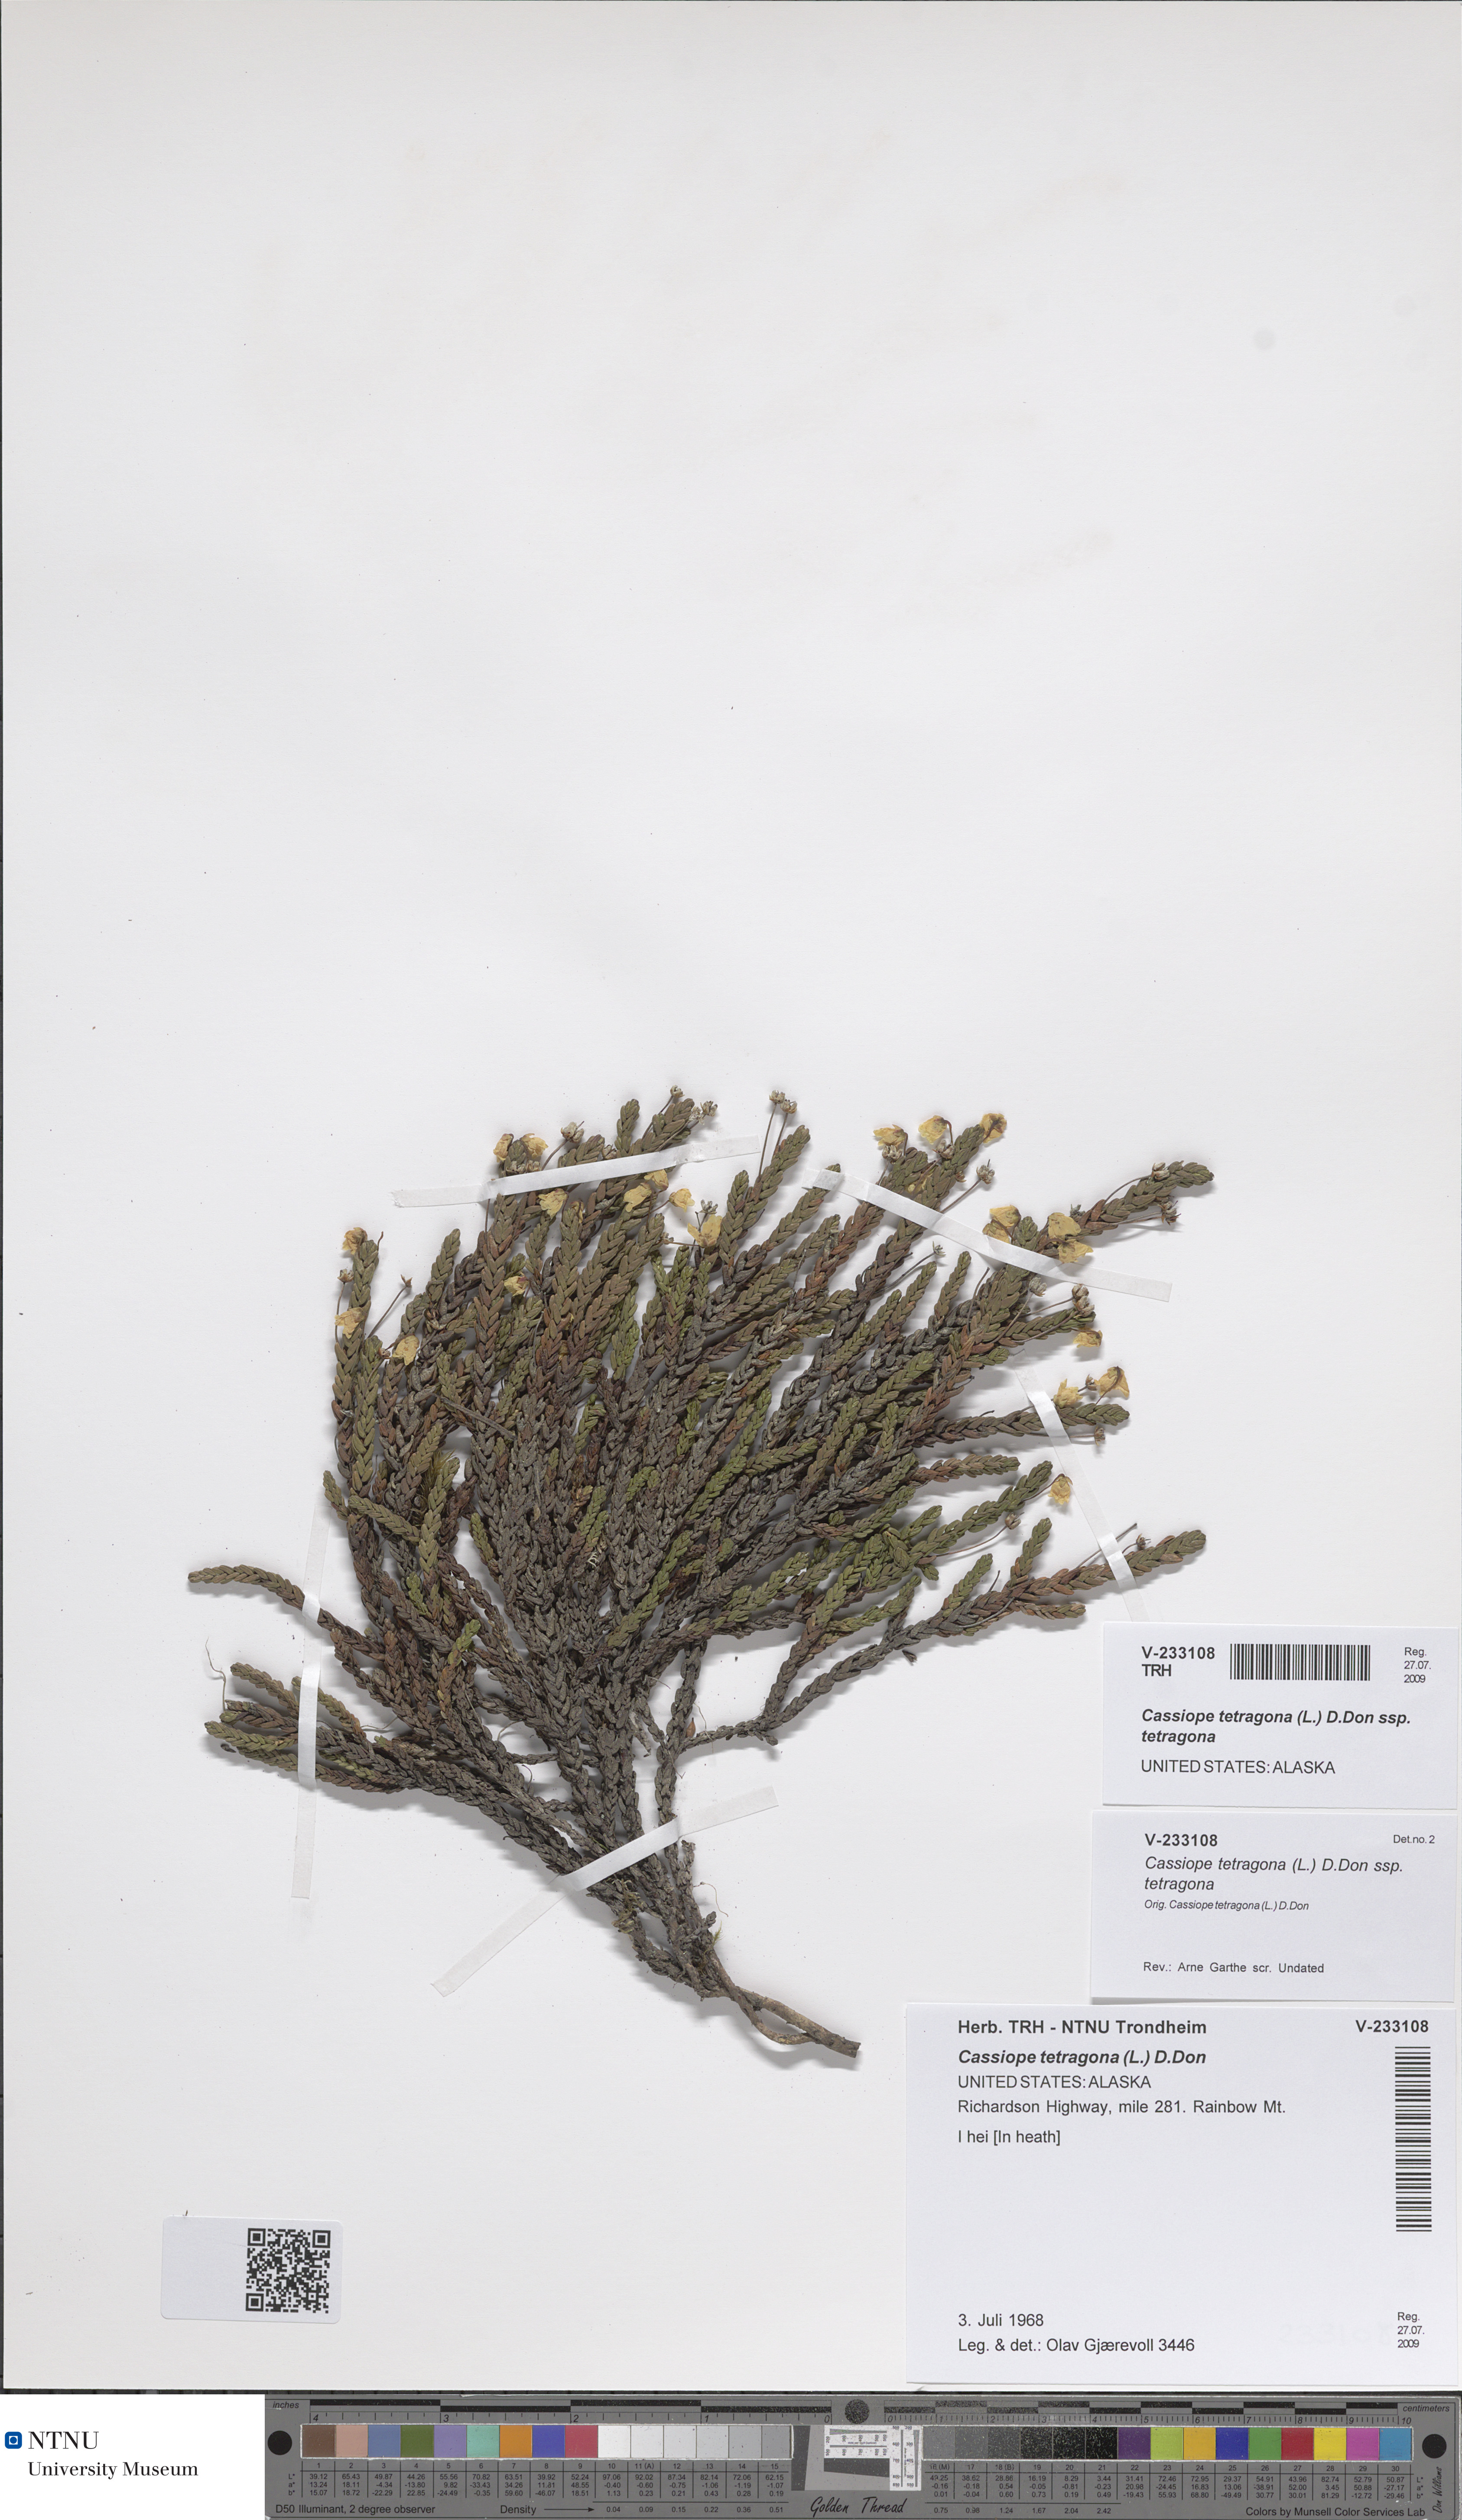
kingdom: Plantae
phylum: Tracheophyta
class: Magnoliopsida
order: Ericales
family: Ericaceae
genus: Cassiope
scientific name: Cassiope tetragona
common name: Arctic bell heather
